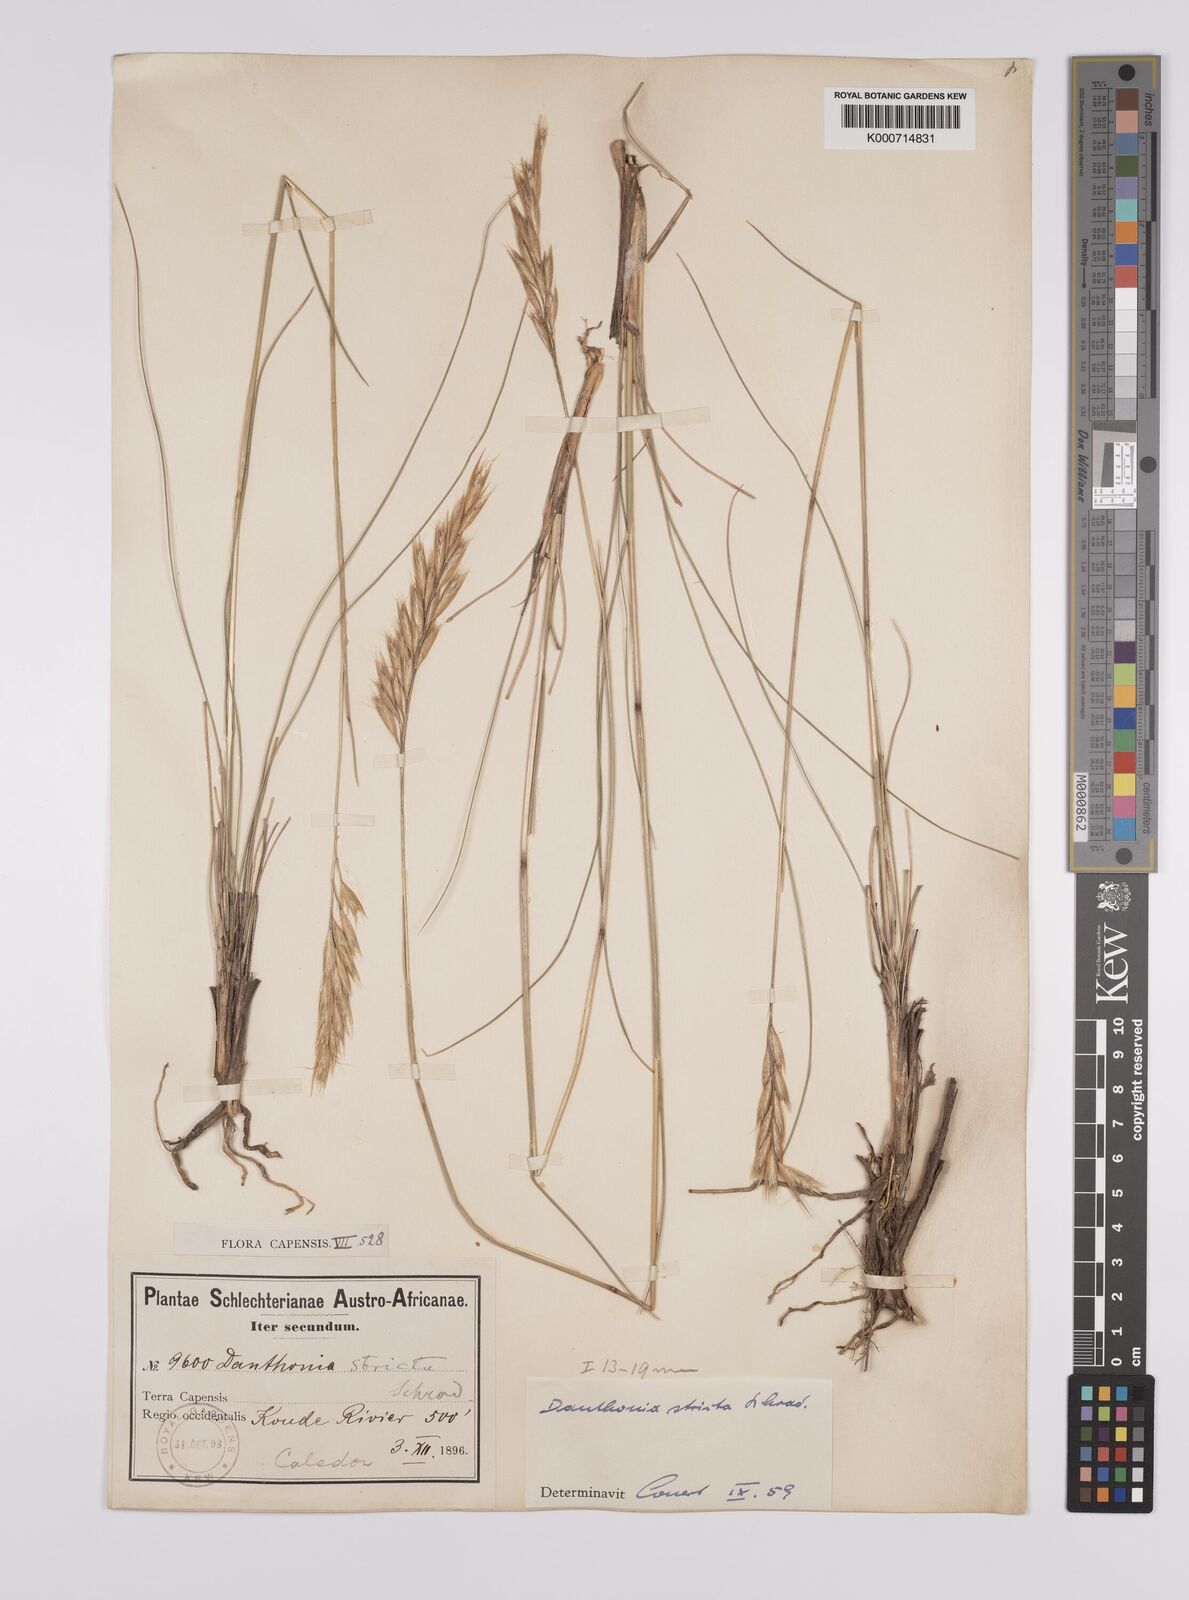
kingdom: Plantae
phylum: Tracheophyta
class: Liliopsida
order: Poales
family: Poaceae
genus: Rytidosperma
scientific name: Rytidosperma
